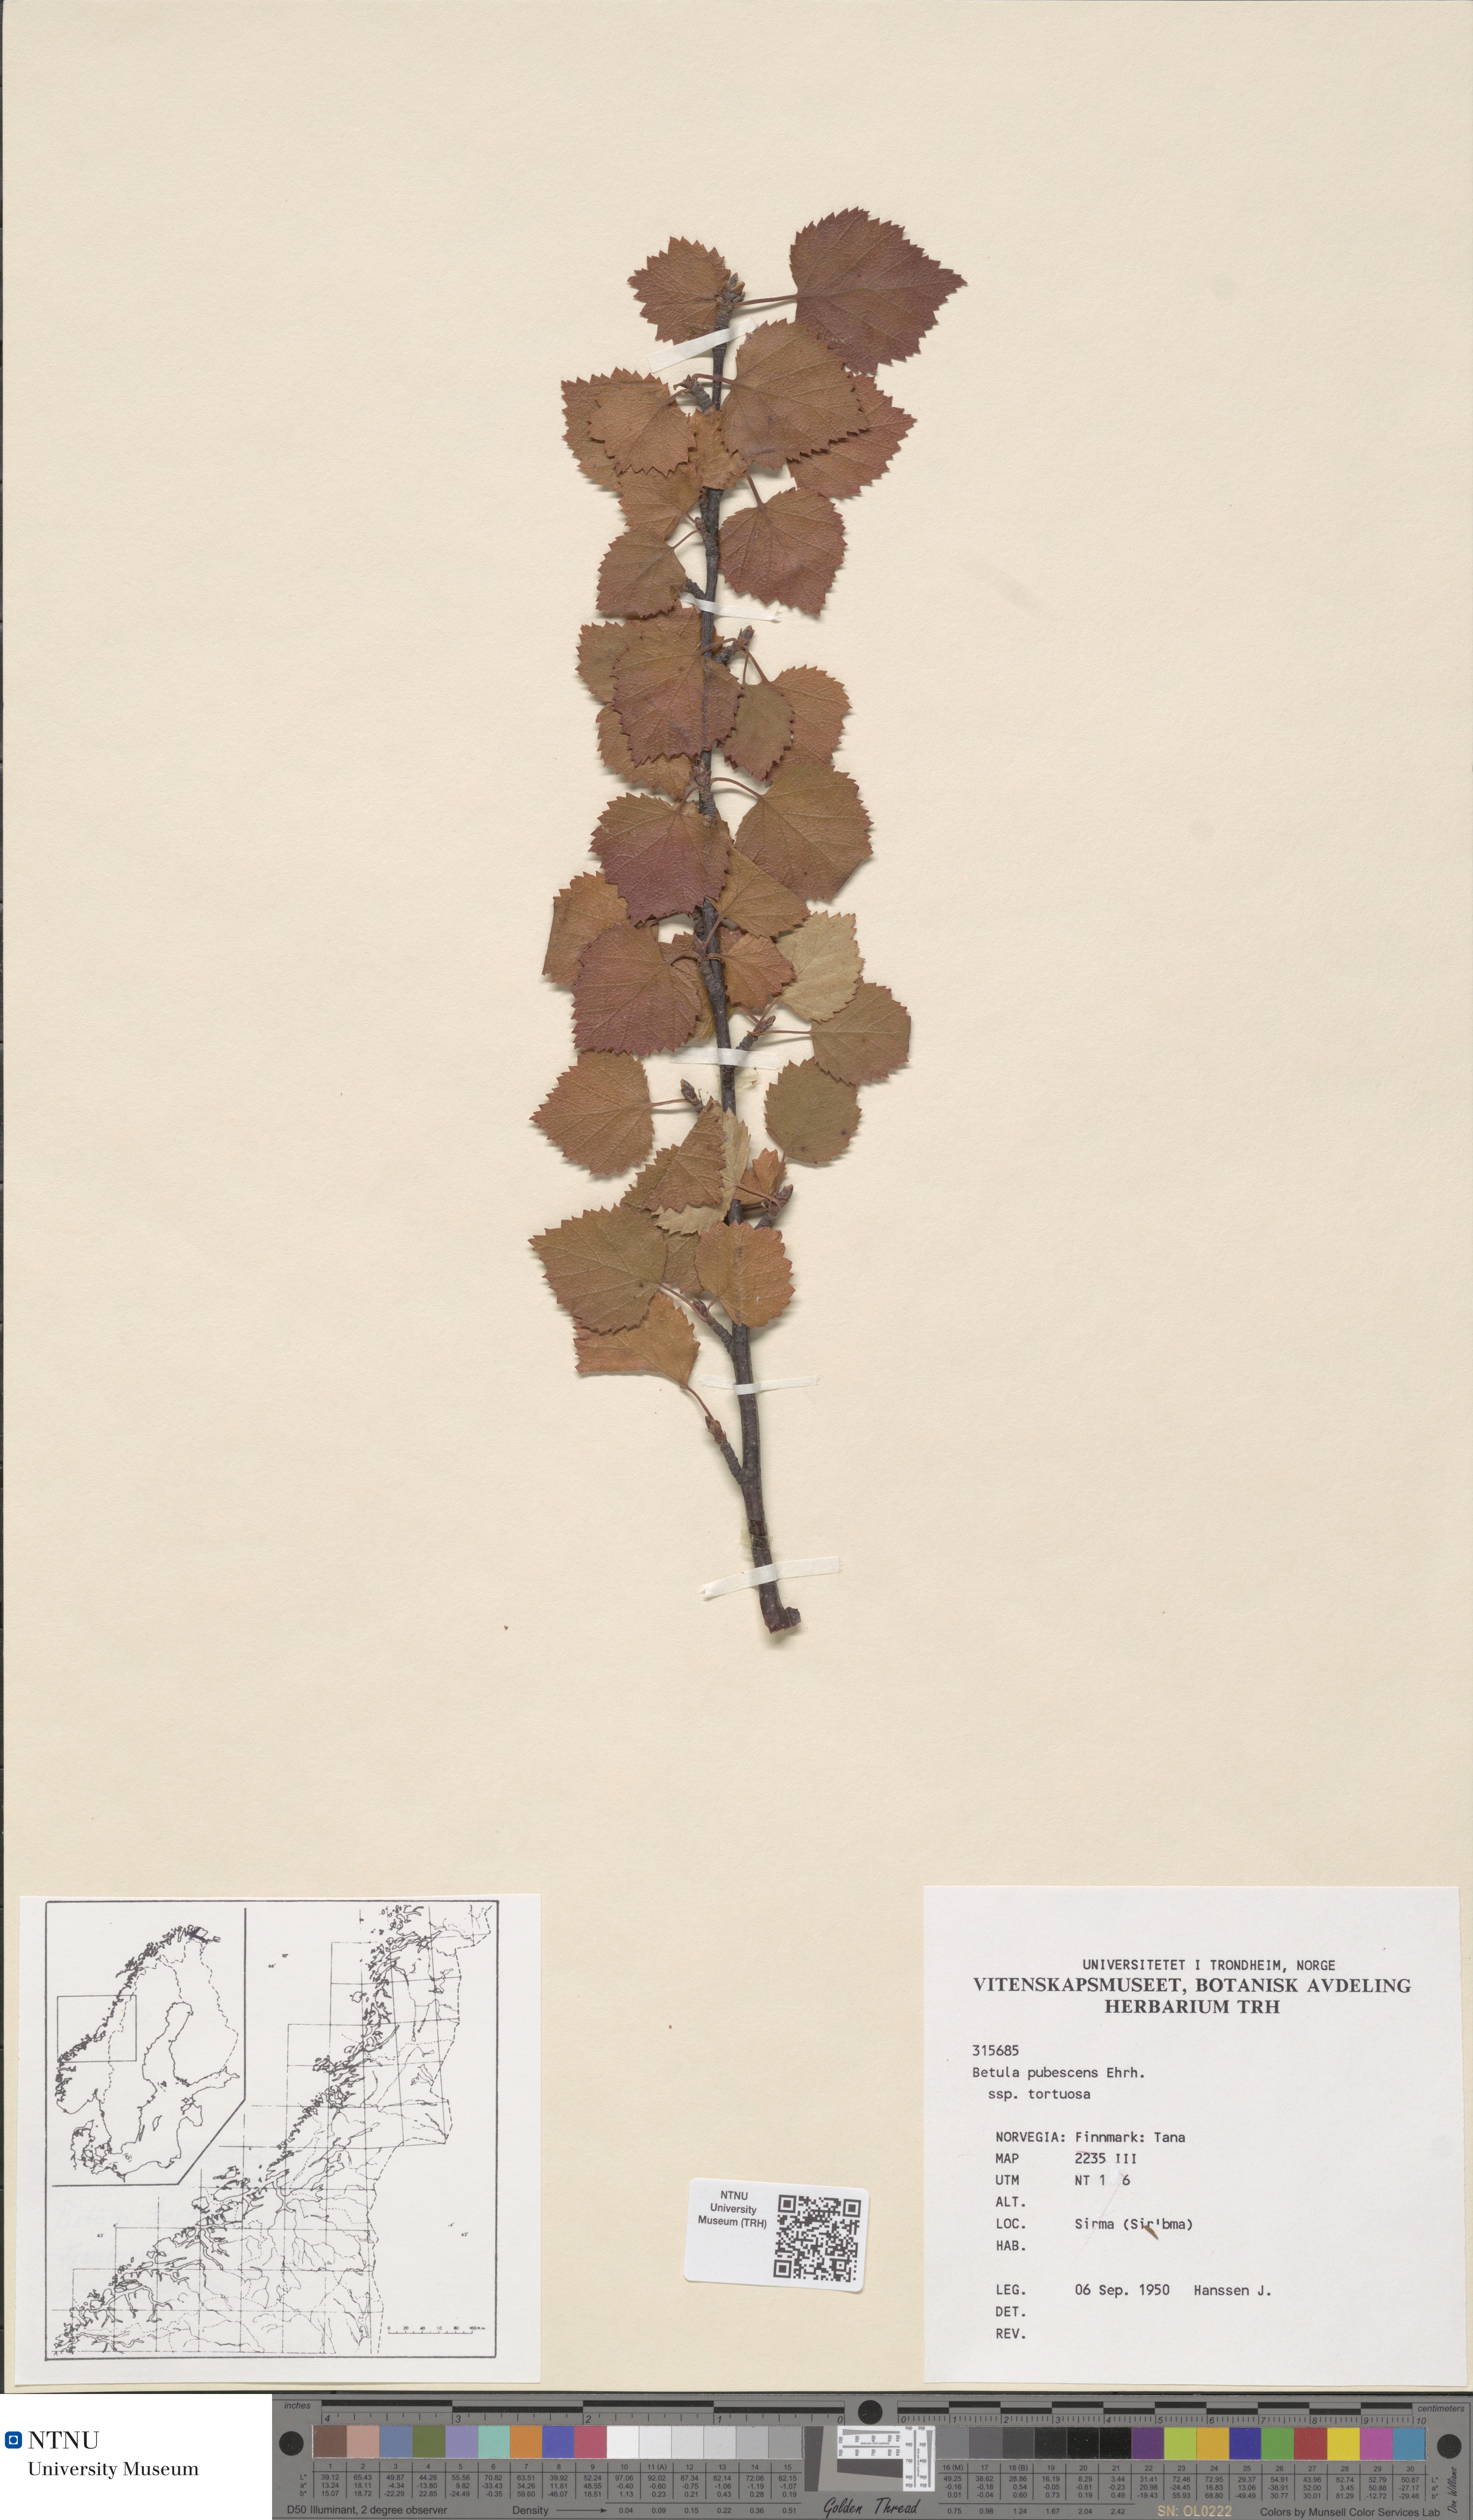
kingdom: Plantae
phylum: Tracheophyta
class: Magnoliopsida
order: Fagales
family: Betulaceae
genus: Betula
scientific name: Betula pubescens
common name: Downy birch
